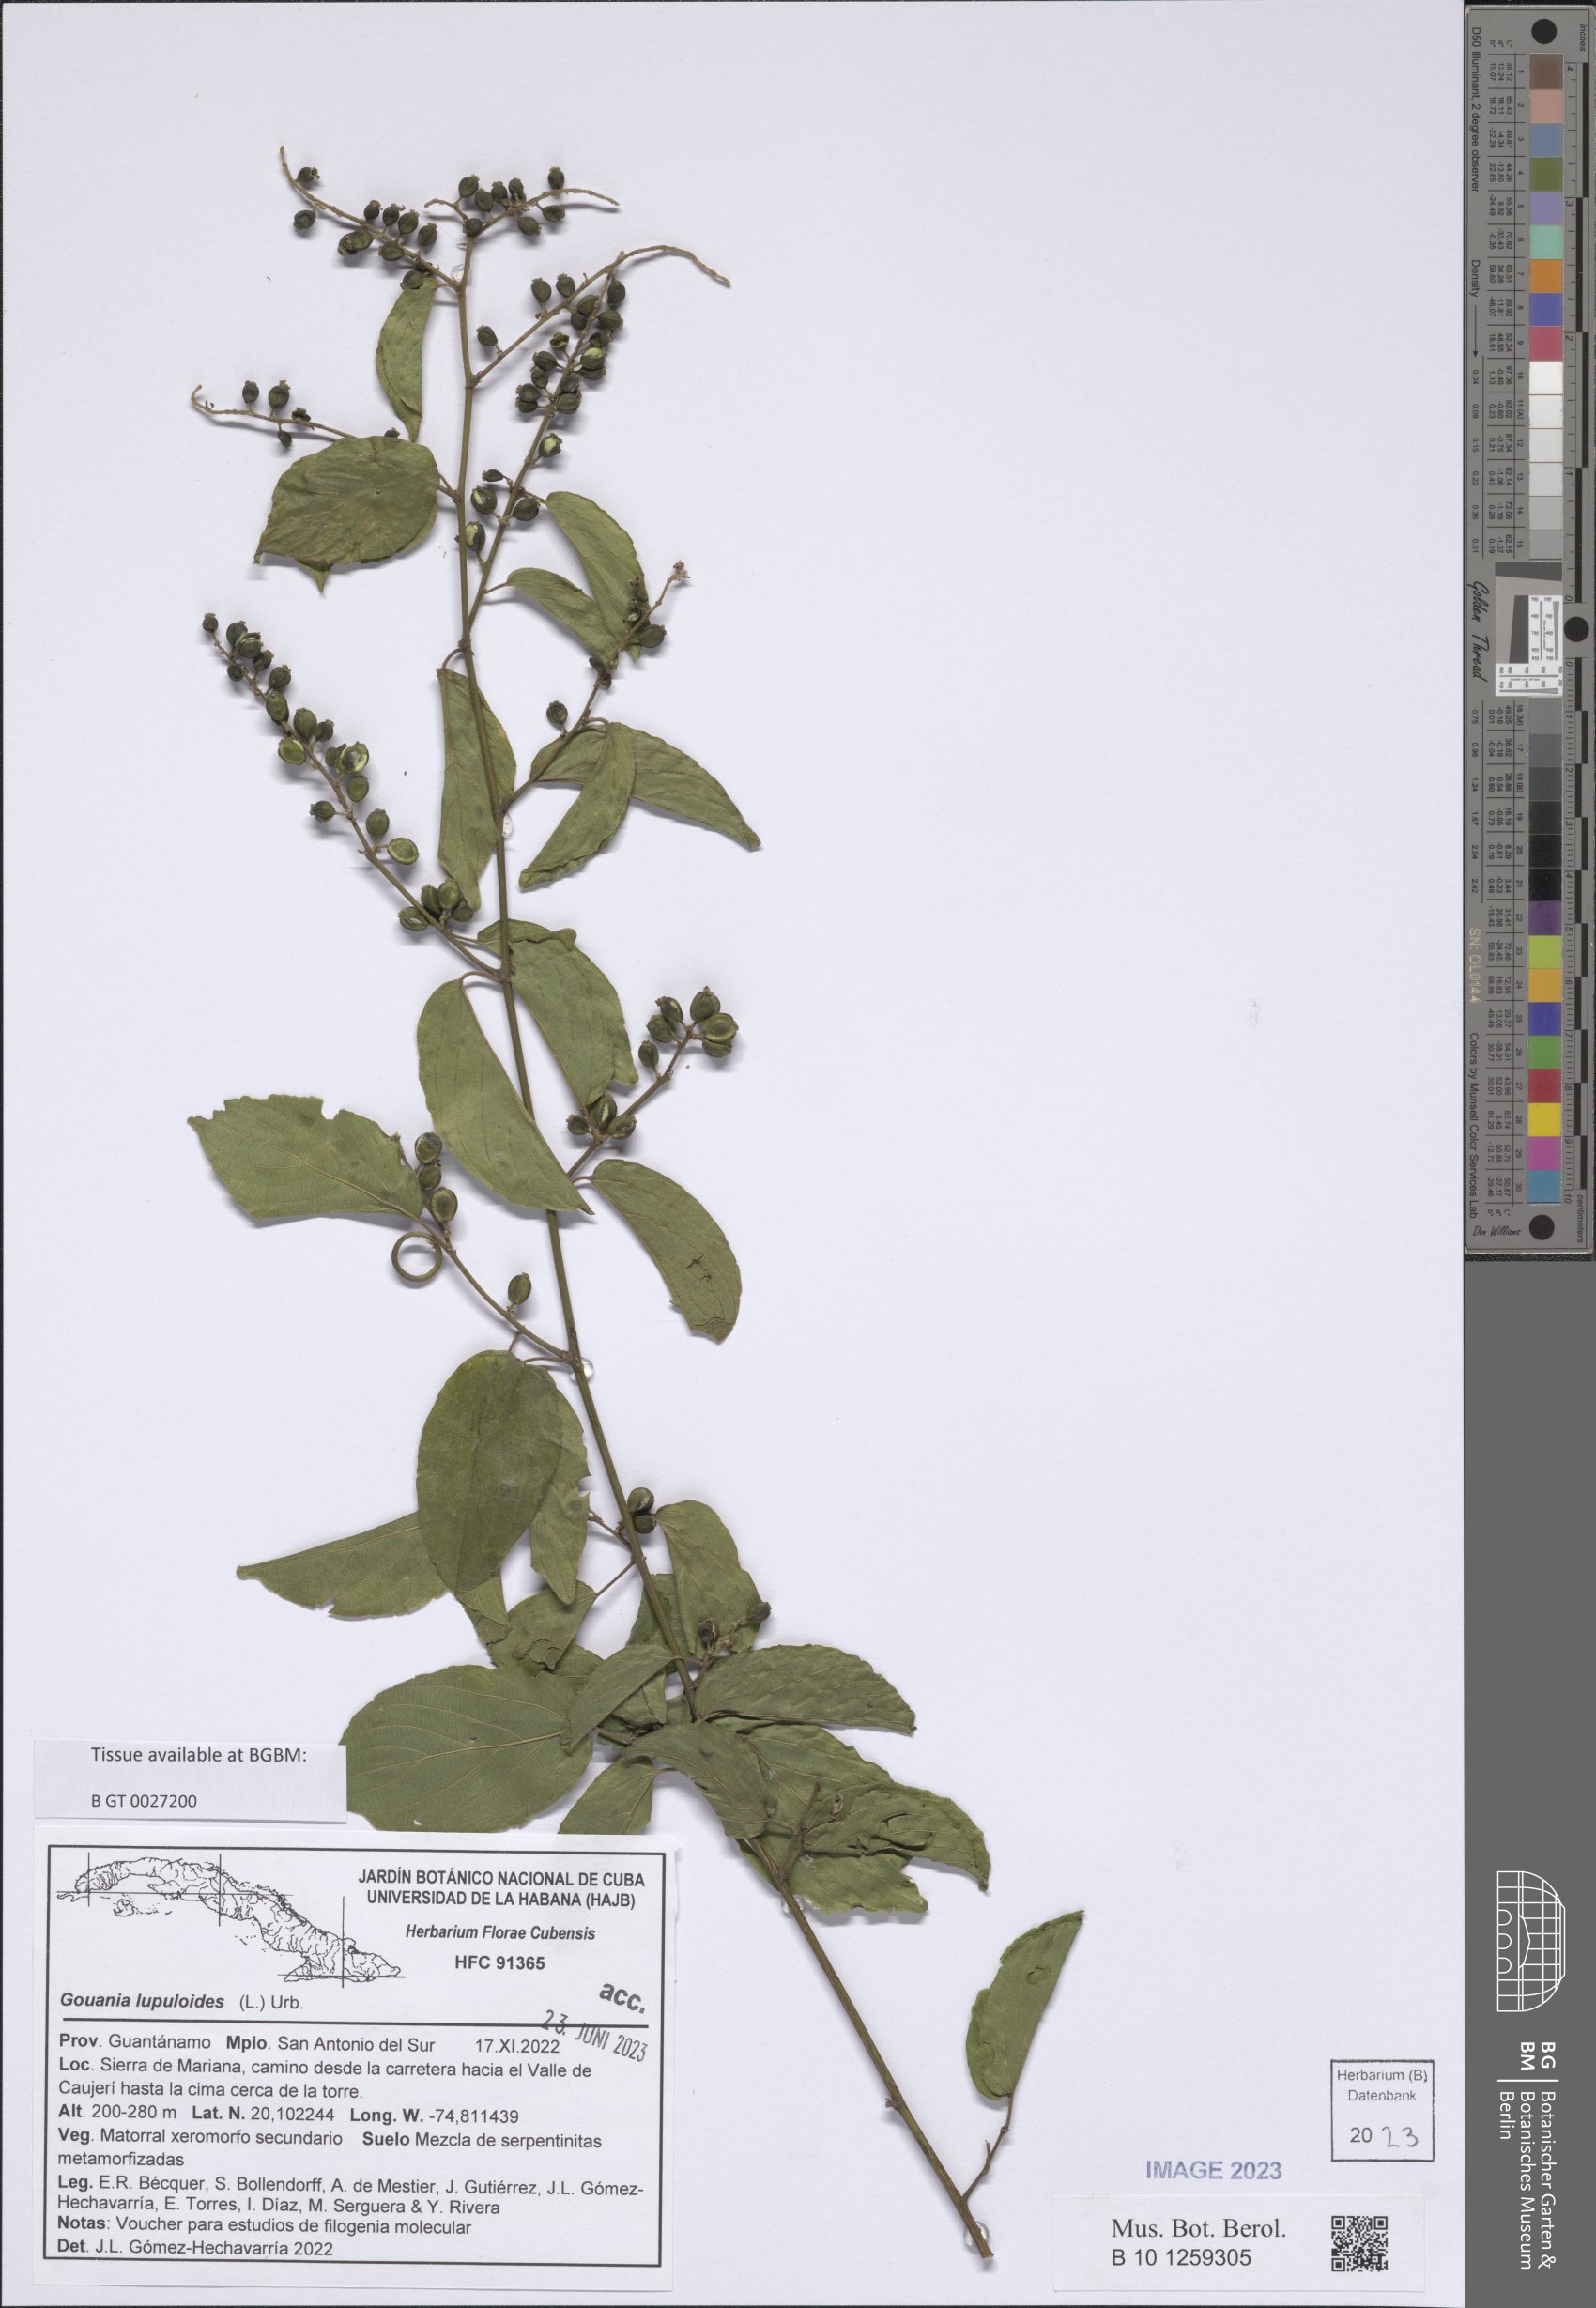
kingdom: Plantae
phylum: Tracheophyta
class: Magnoliopsida
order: Rosales
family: Rhamnaceae
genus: Gouania
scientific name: Gouania lupuloides
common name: Chewstick
